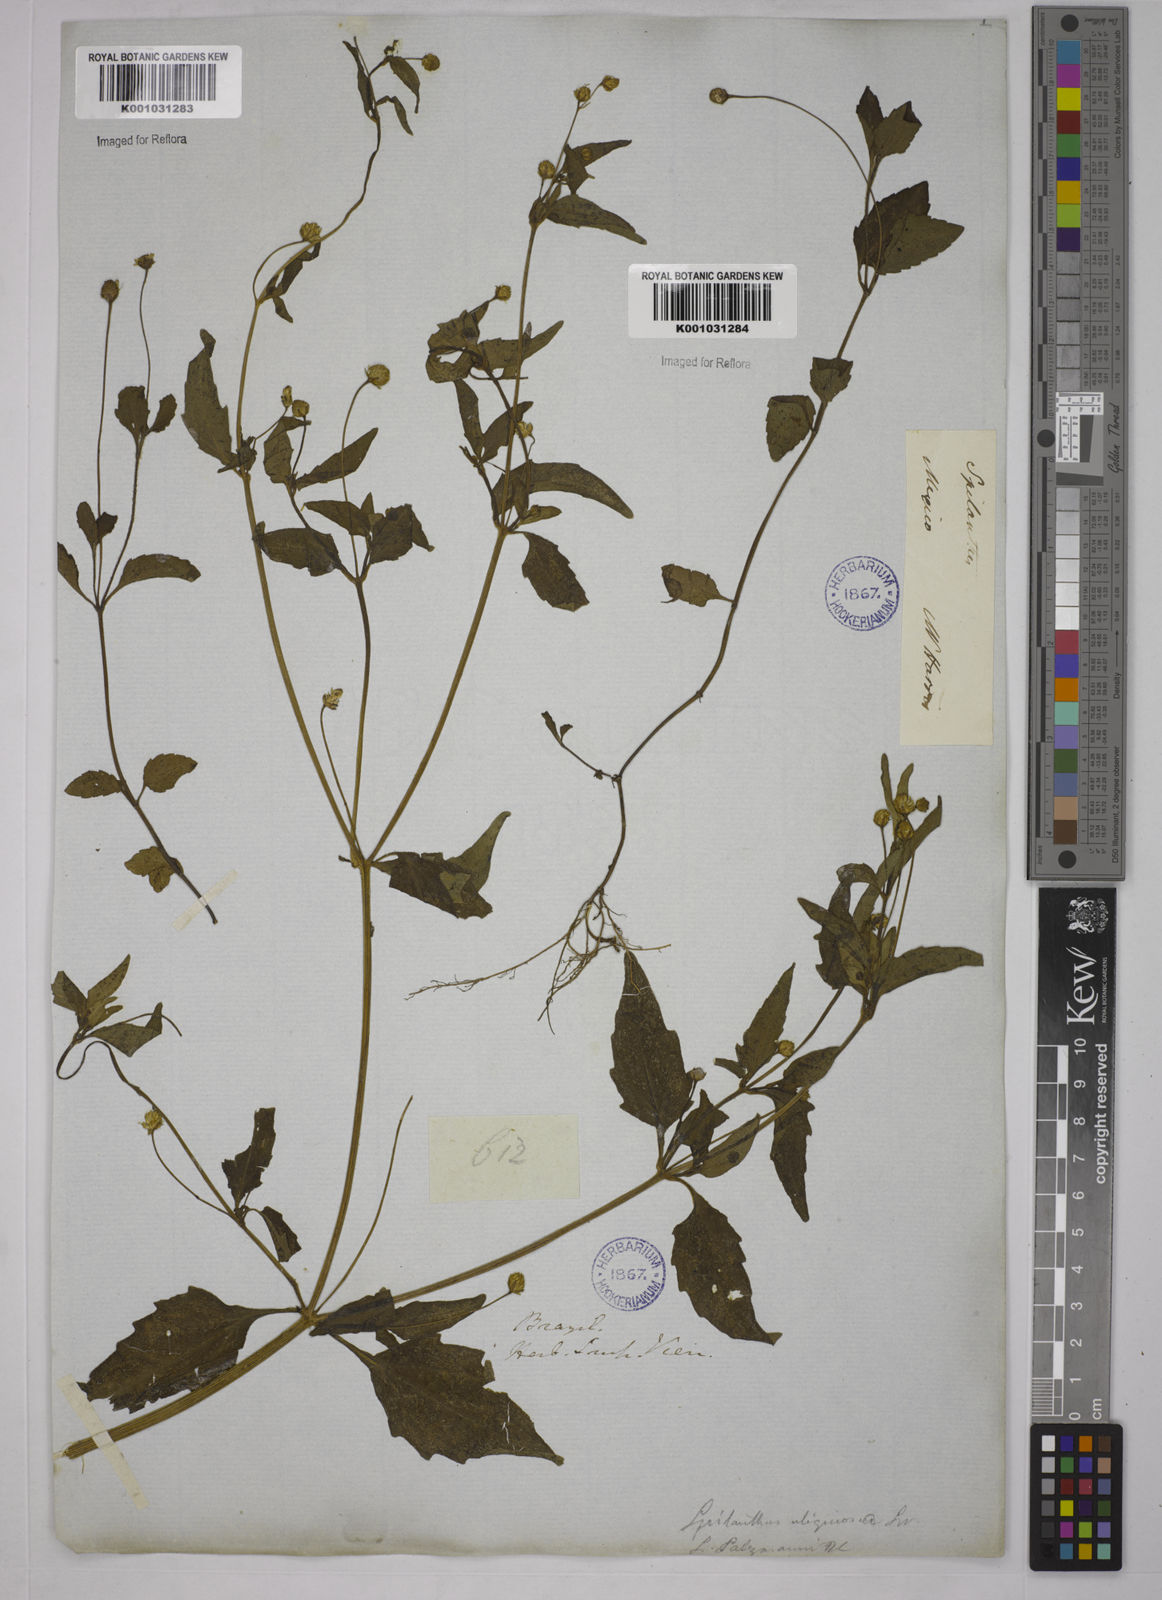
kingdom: Plantae
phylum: Tracheophyta
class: Magnoliopsida
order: Asterales
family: Asteraceae
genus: Acmella
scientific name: Acmella uliginosa
